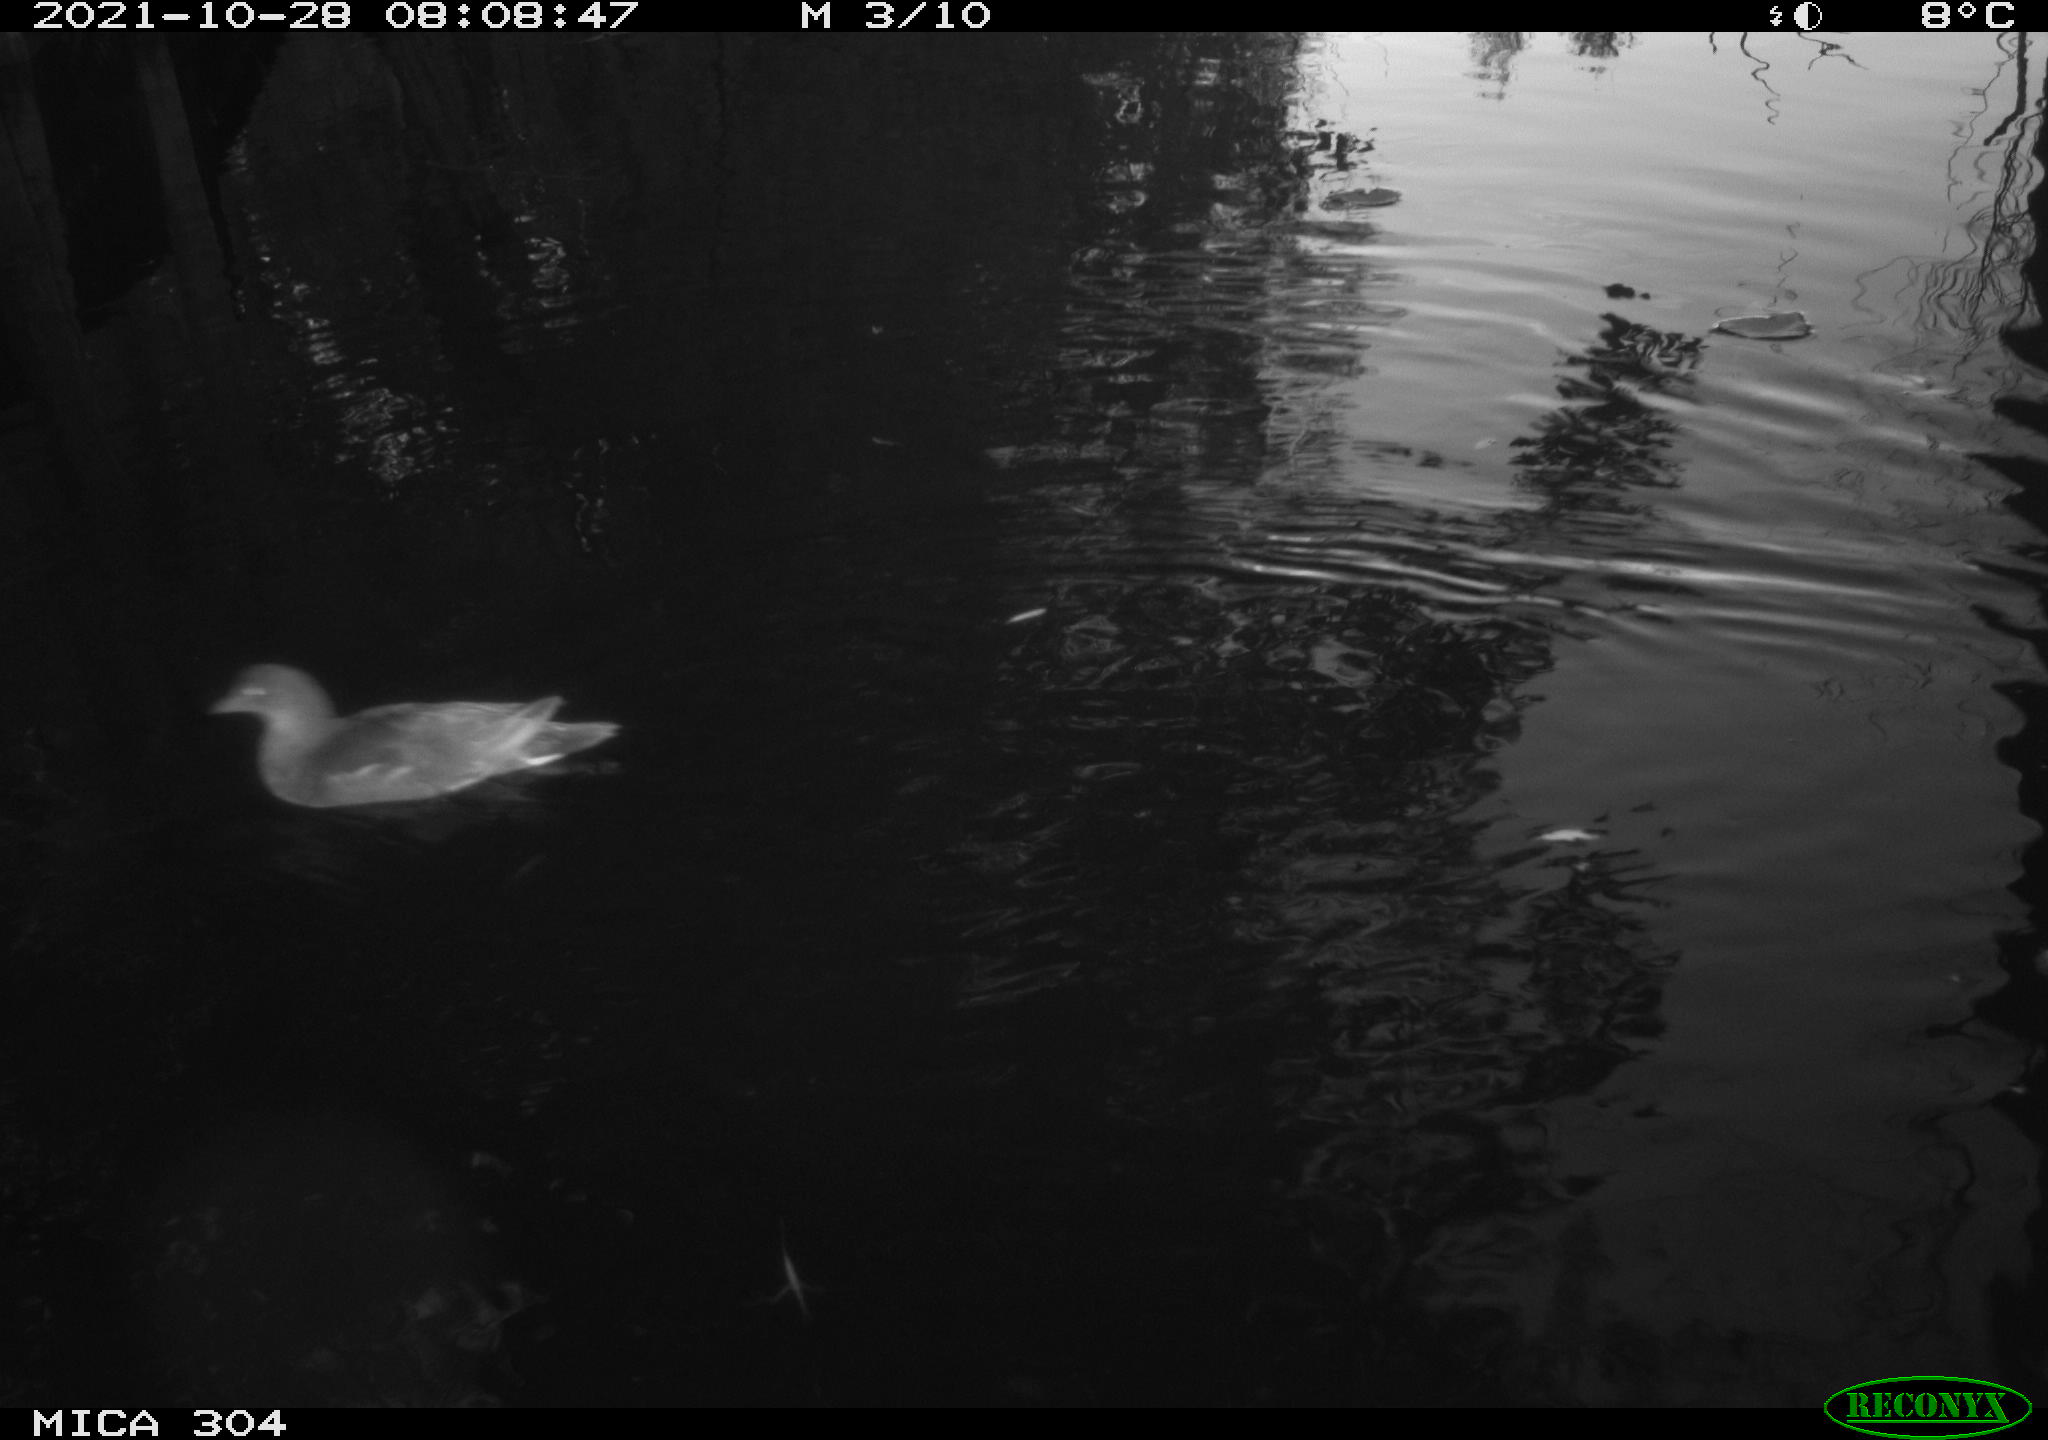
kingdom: Animalia
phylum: Chordata
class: Aves
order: Anseriformes
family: Anatidae
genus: Mareca
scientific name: Mareca strepera
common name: Gadwall
